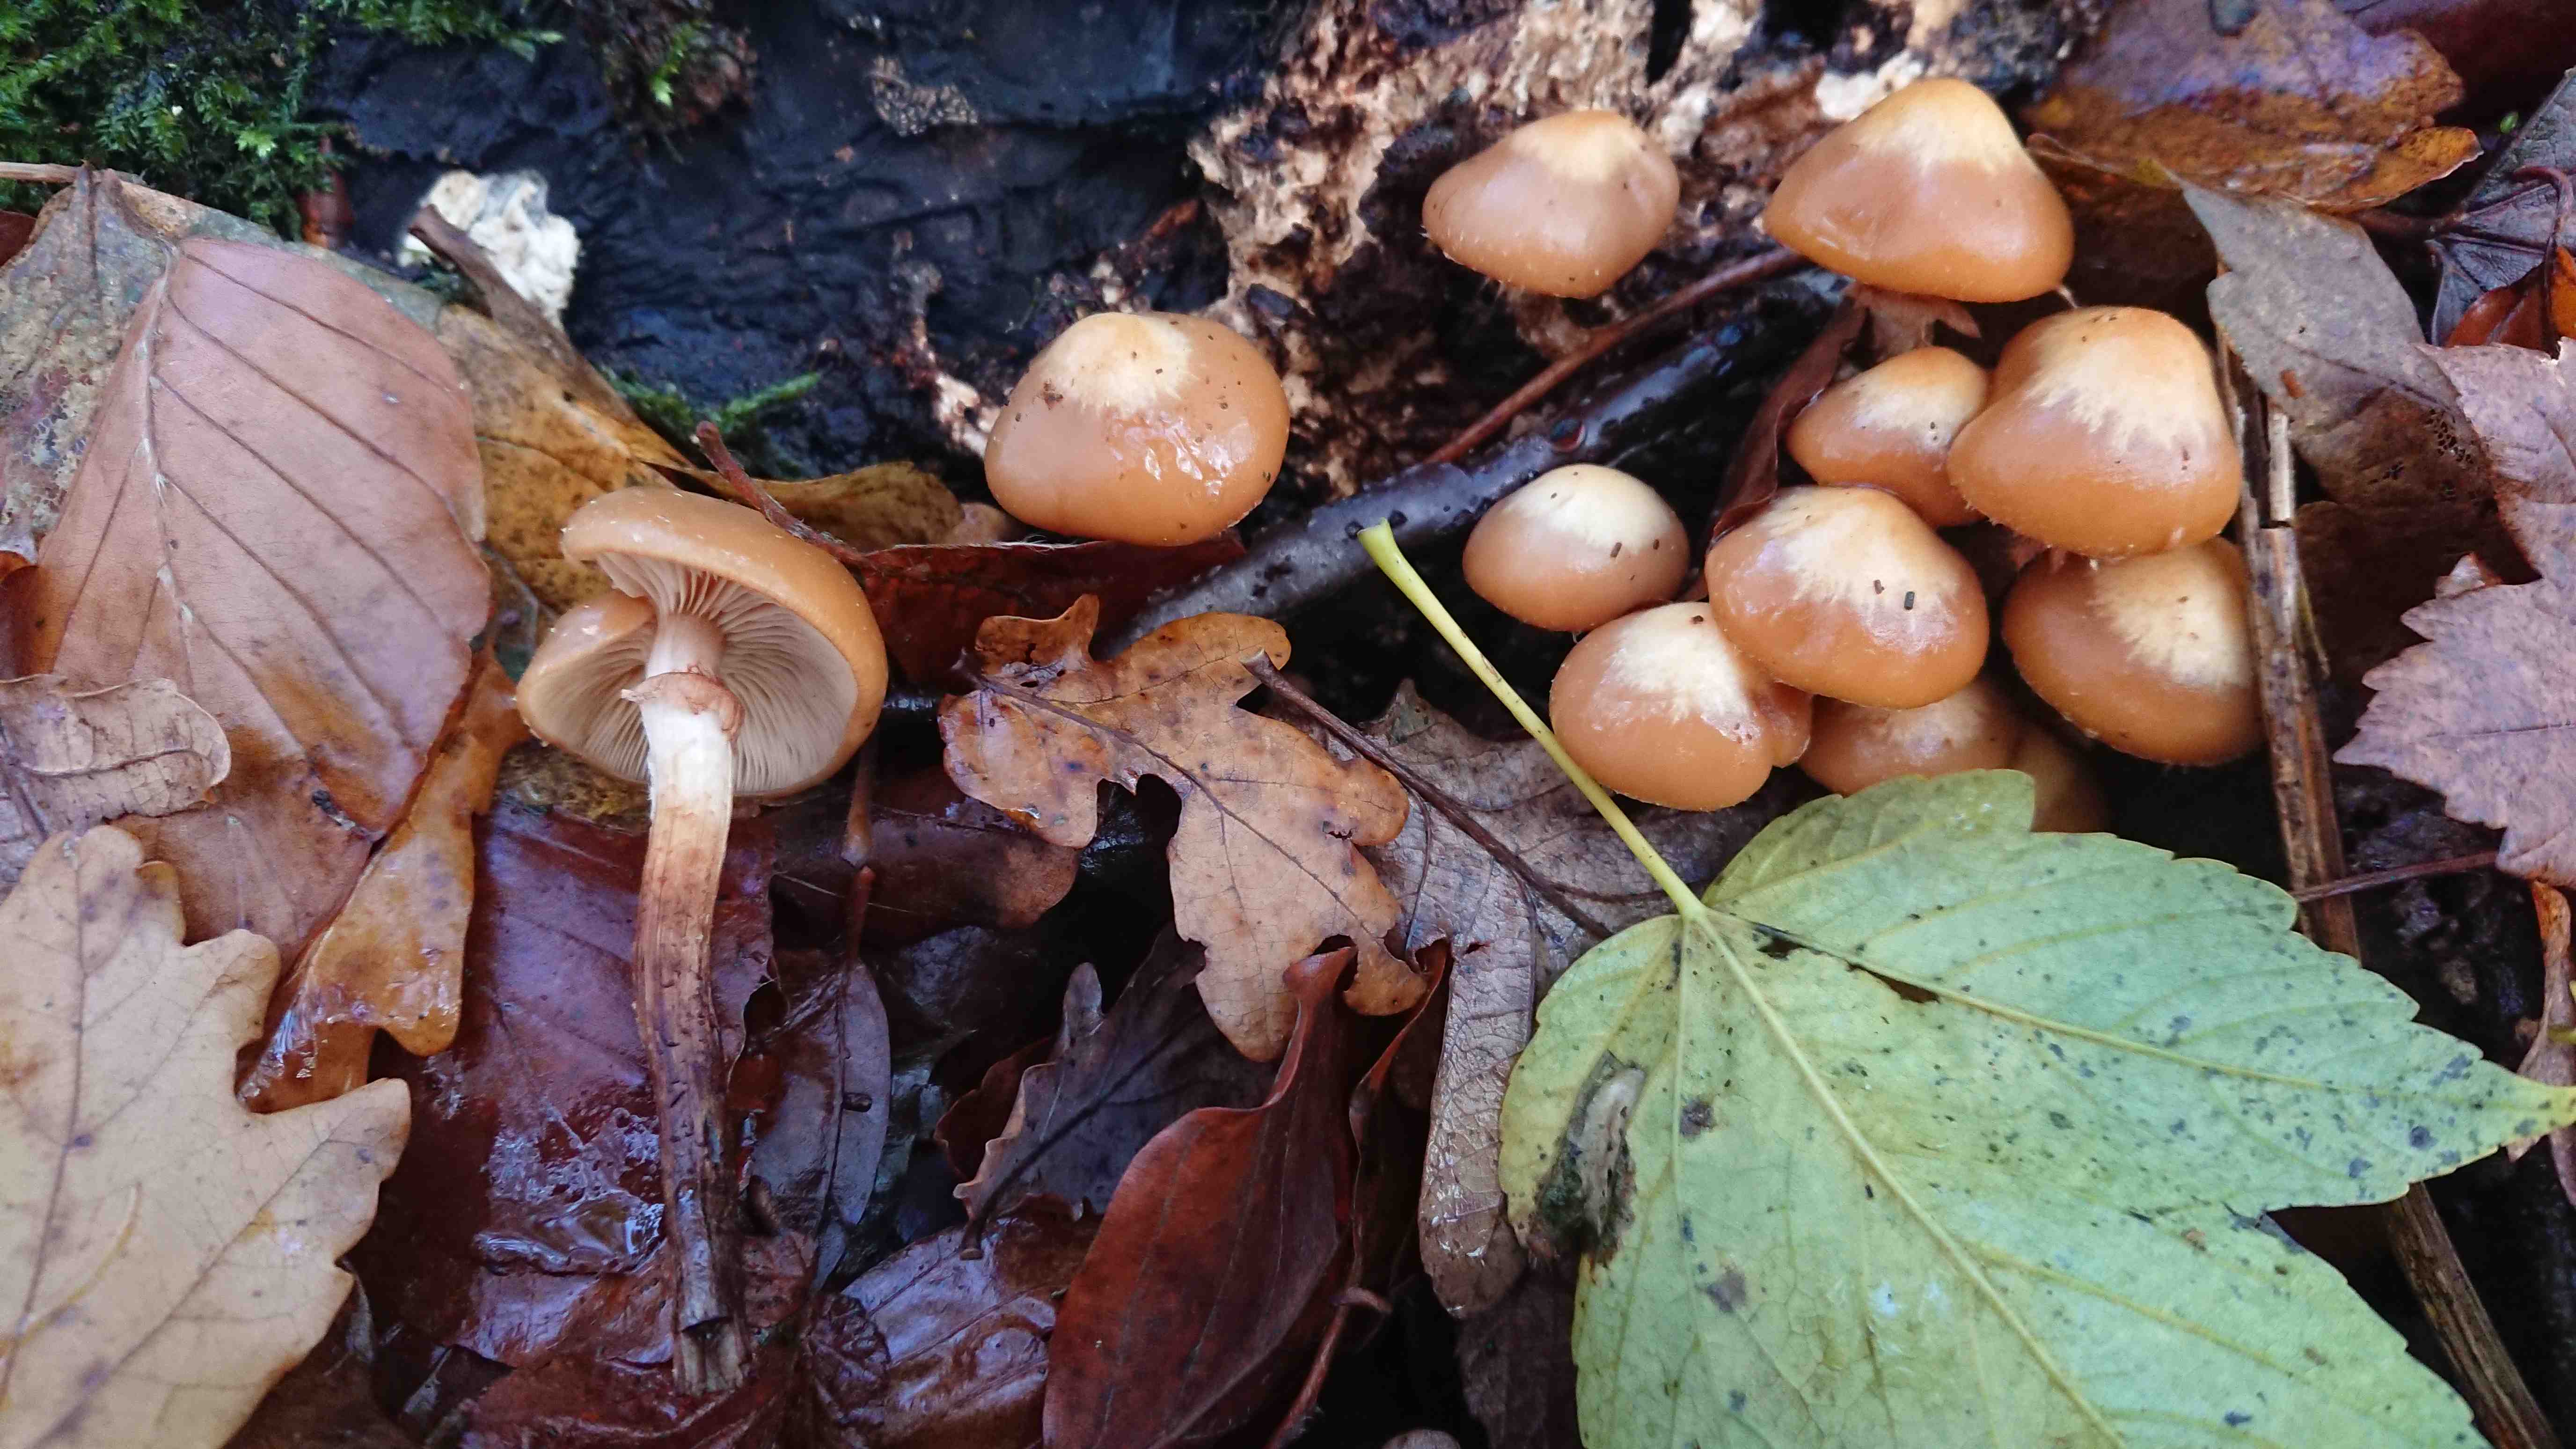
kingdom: Fungi
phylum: Basidiomycota
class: Agaricomycetes
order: Agaricales
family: Strophariaceae
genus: Kuehneromyces
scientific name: Kuehneromyces mutabilis
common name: foranderlig skælhat
